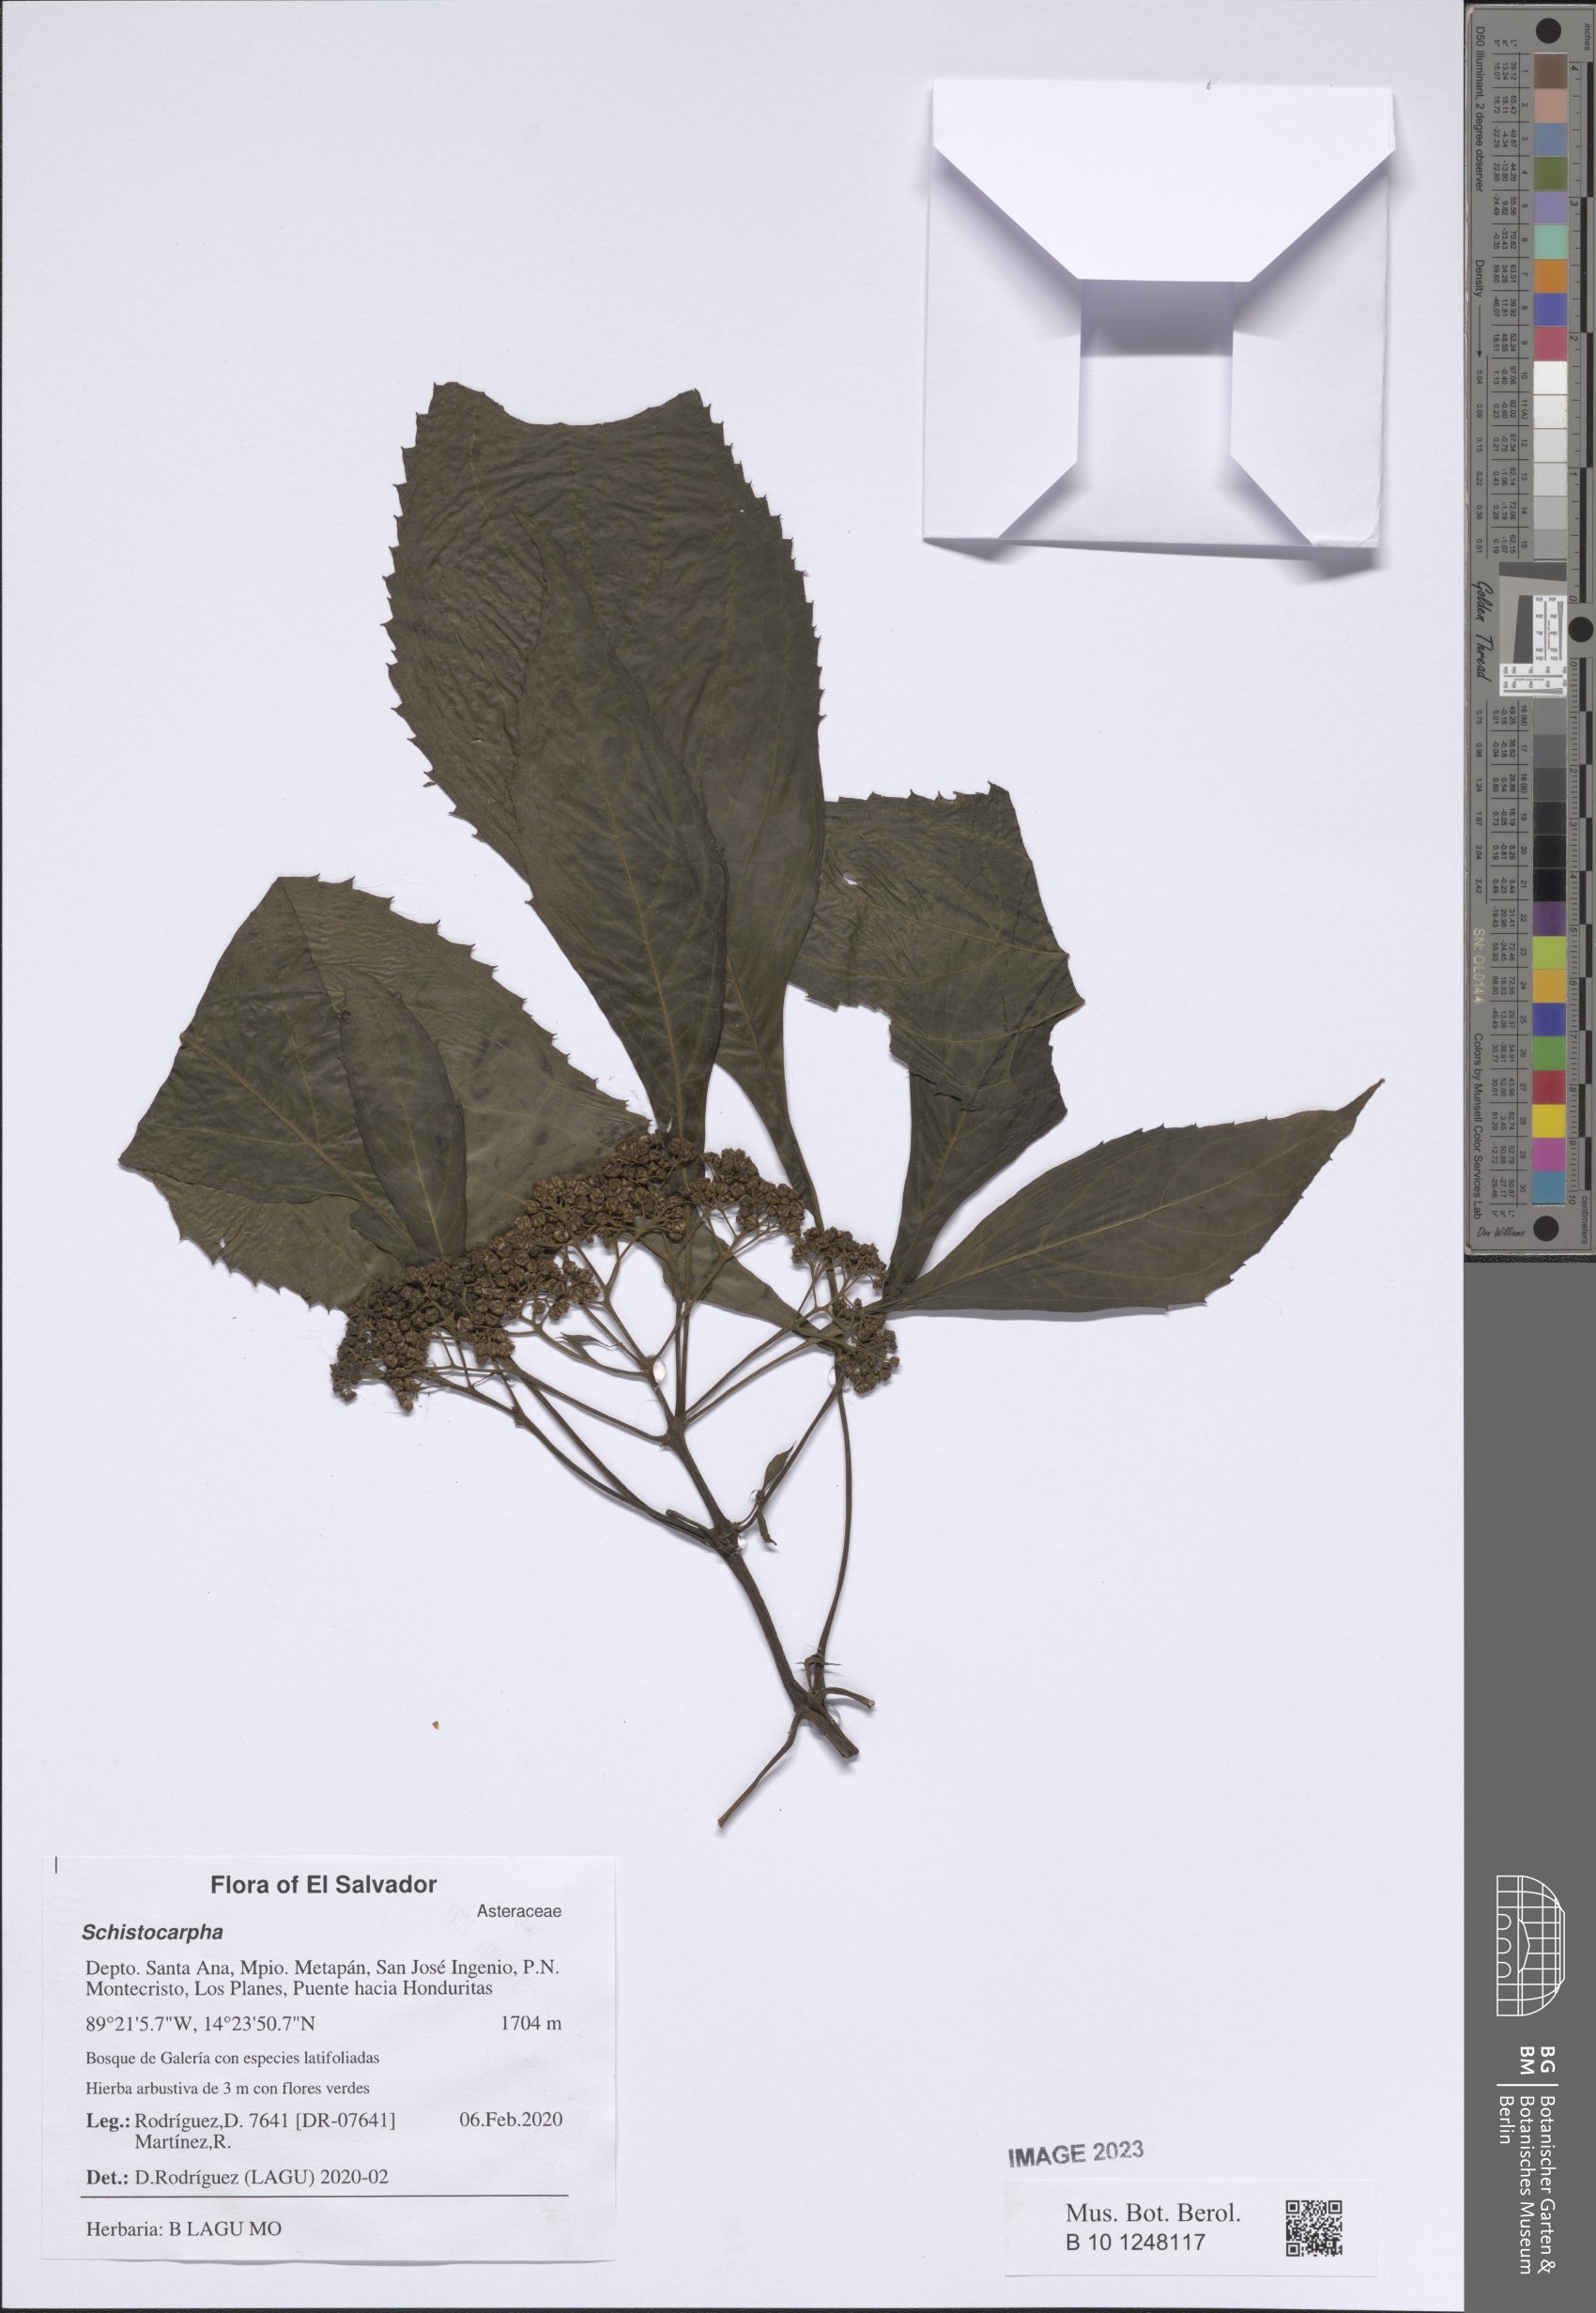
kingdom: Plantae
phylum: Tracheophyta
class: Magnoliopsida
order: Asterales
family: Asteraceae
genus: Schistocarpha
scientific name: Schistocarpha
